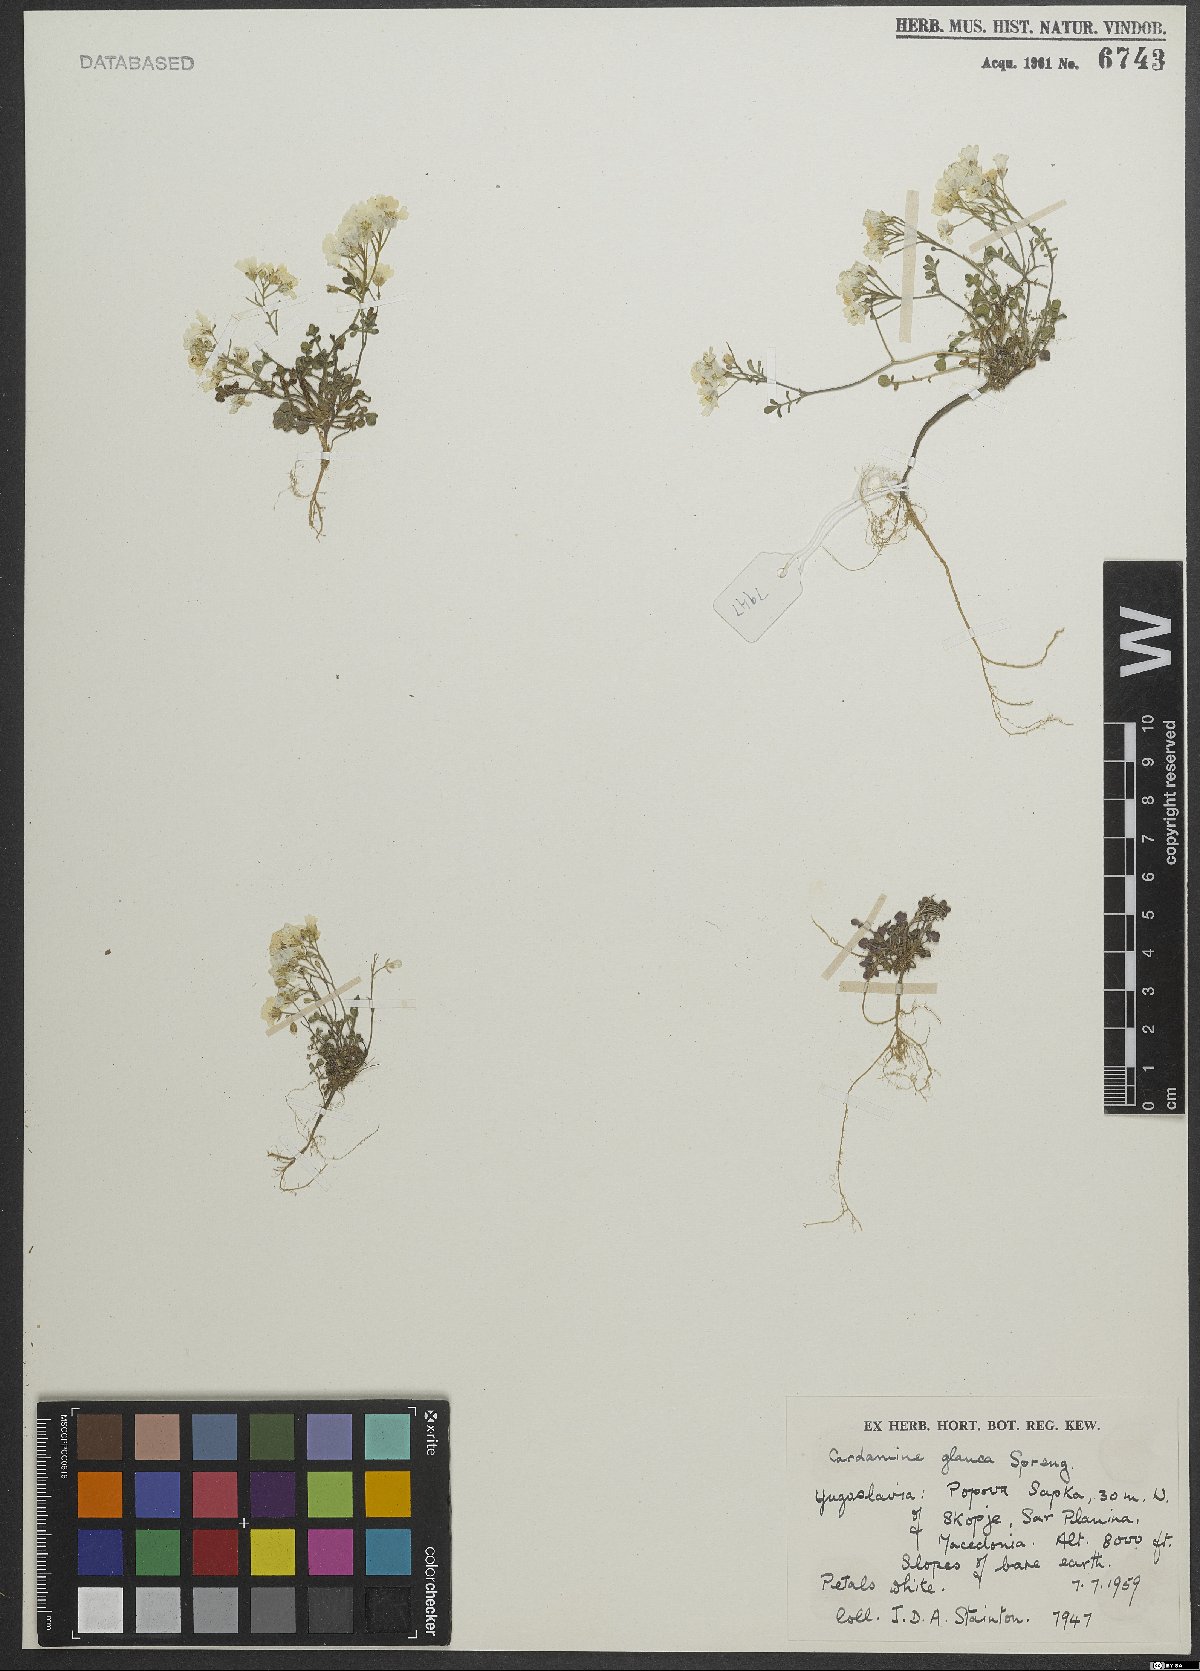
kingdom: Plantae
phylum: Tracheophyta
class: Magnoliopsida
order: Brassicales
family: Brassicaceae
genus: Cardamine
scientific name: Cardamine glauca
